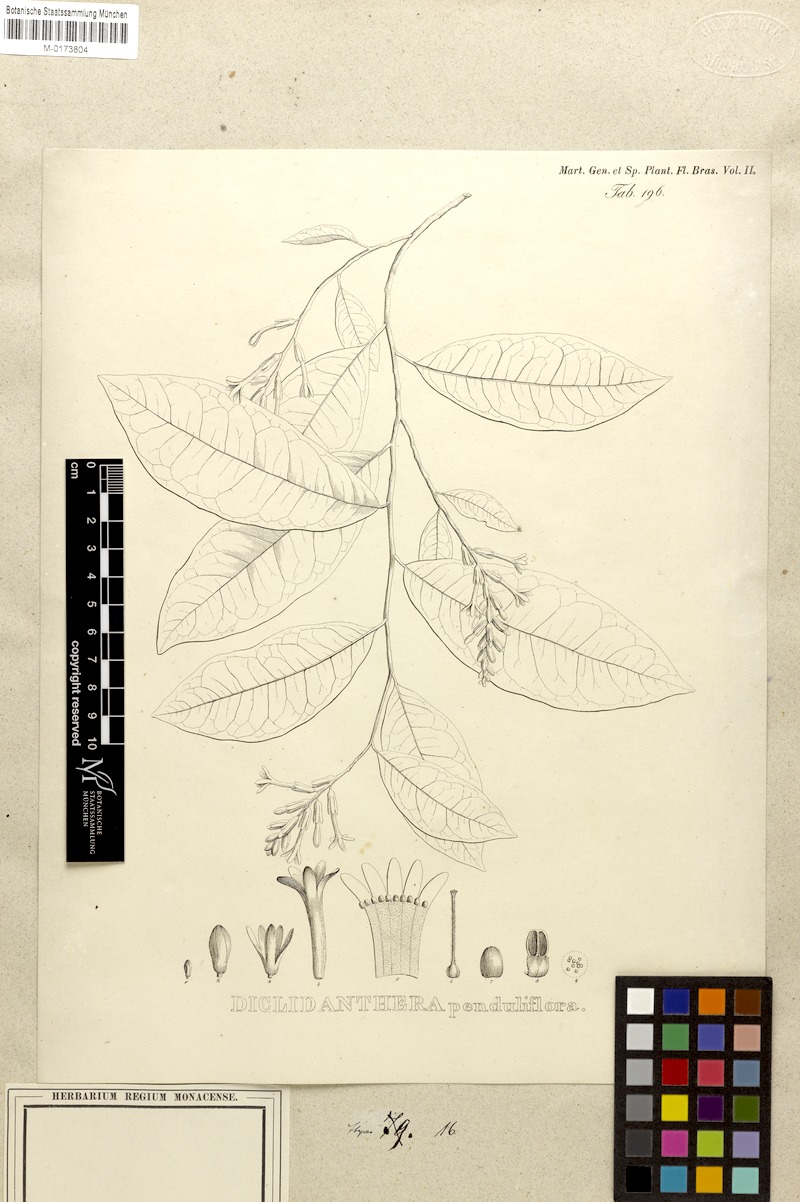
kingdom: Plantae
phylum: Tracheophyta
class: Magnoliopsida
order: Fabales
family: Polygalaceae
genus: Diclidanthera
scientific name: Diclidanthera penduliflora
